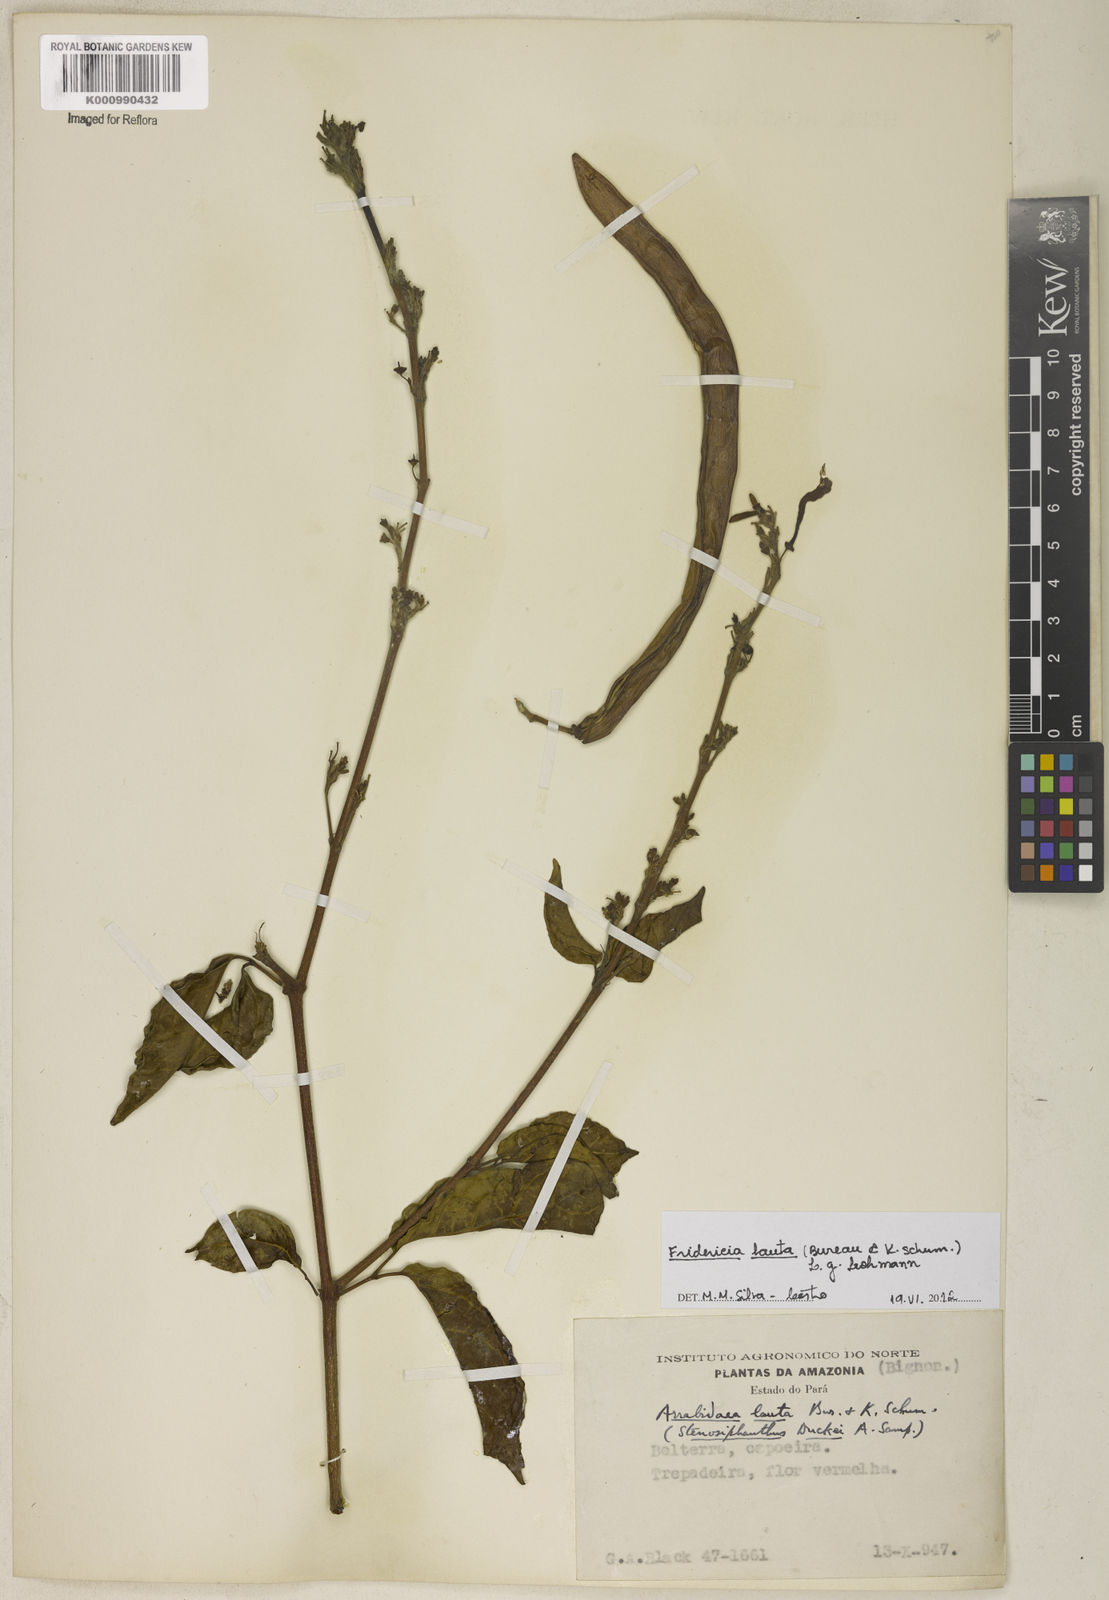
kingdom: Plantae
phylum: Tracheophyta
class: Magnoliopsida
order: Lamiales
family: Bignoniaceae
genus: Fridericia
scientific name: Fridericia lauta
